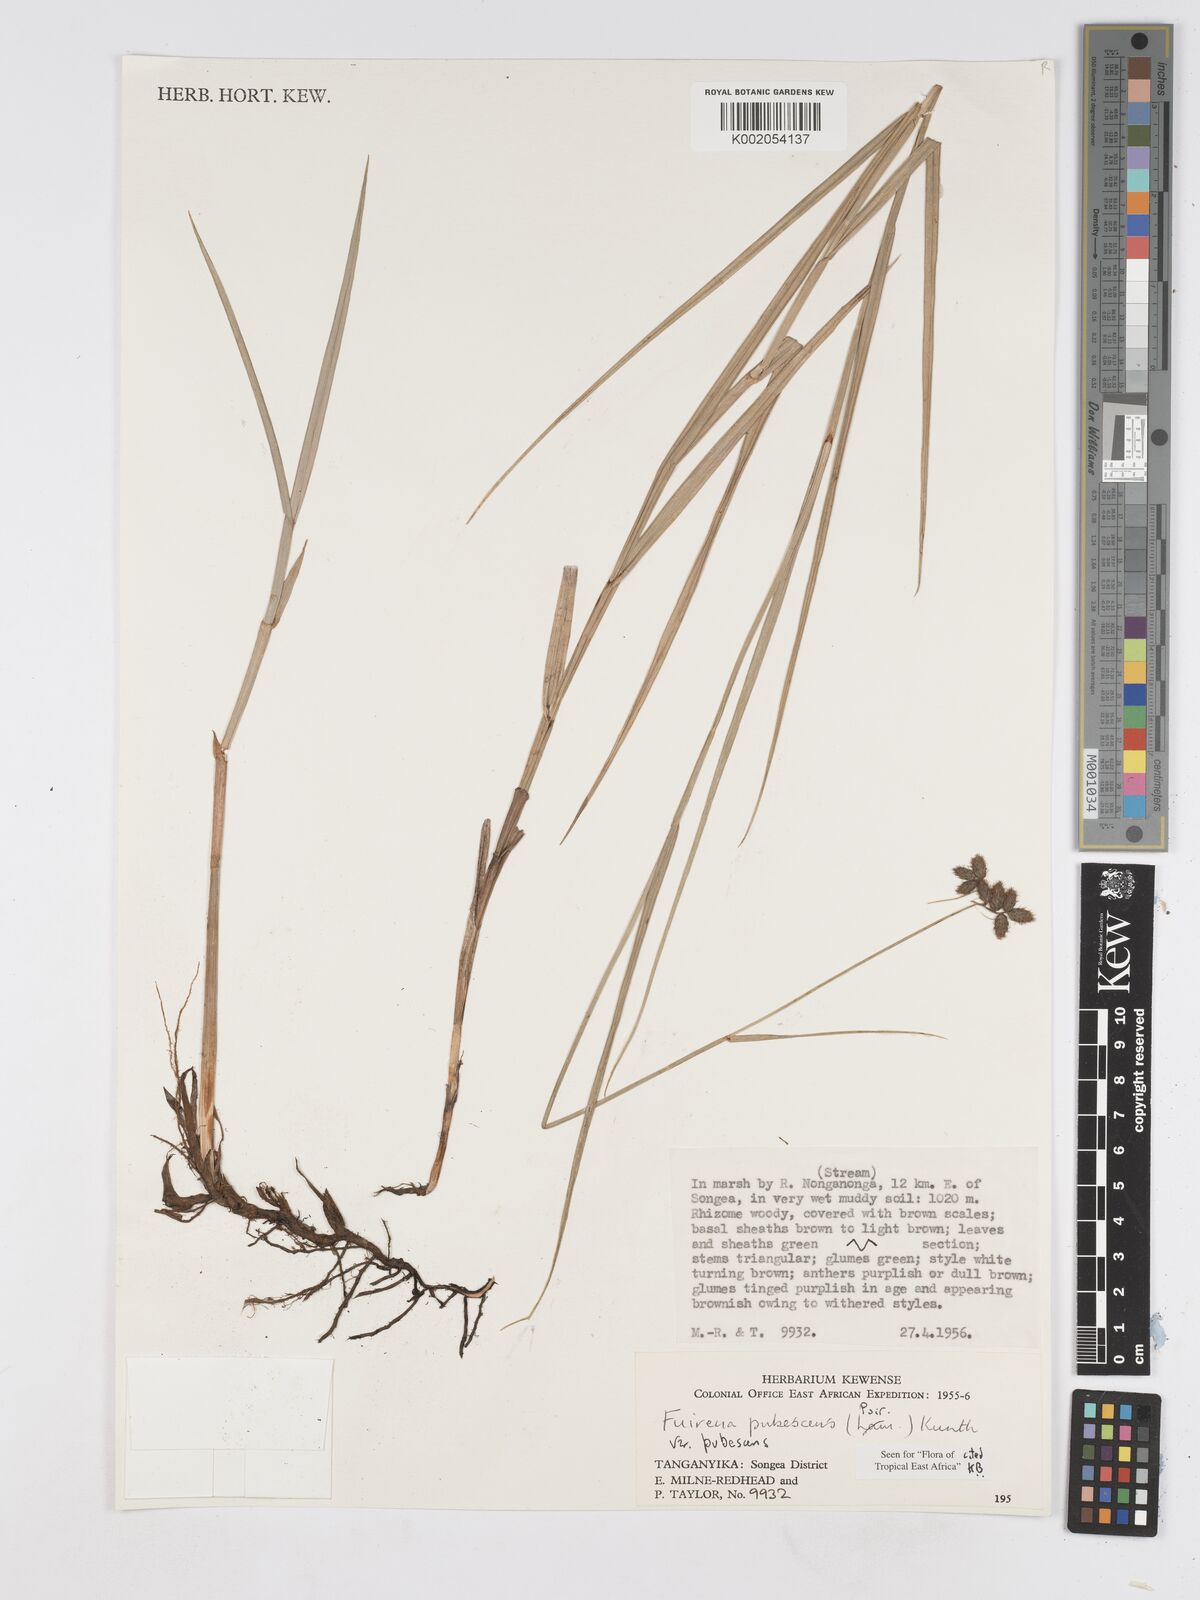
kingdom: Plantae
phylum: Tracheophyta
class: Liliopsida
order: Poales
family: Cyperaceae
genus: Fuirena
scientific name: Fuirena pubescens
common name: Hairy sedge
